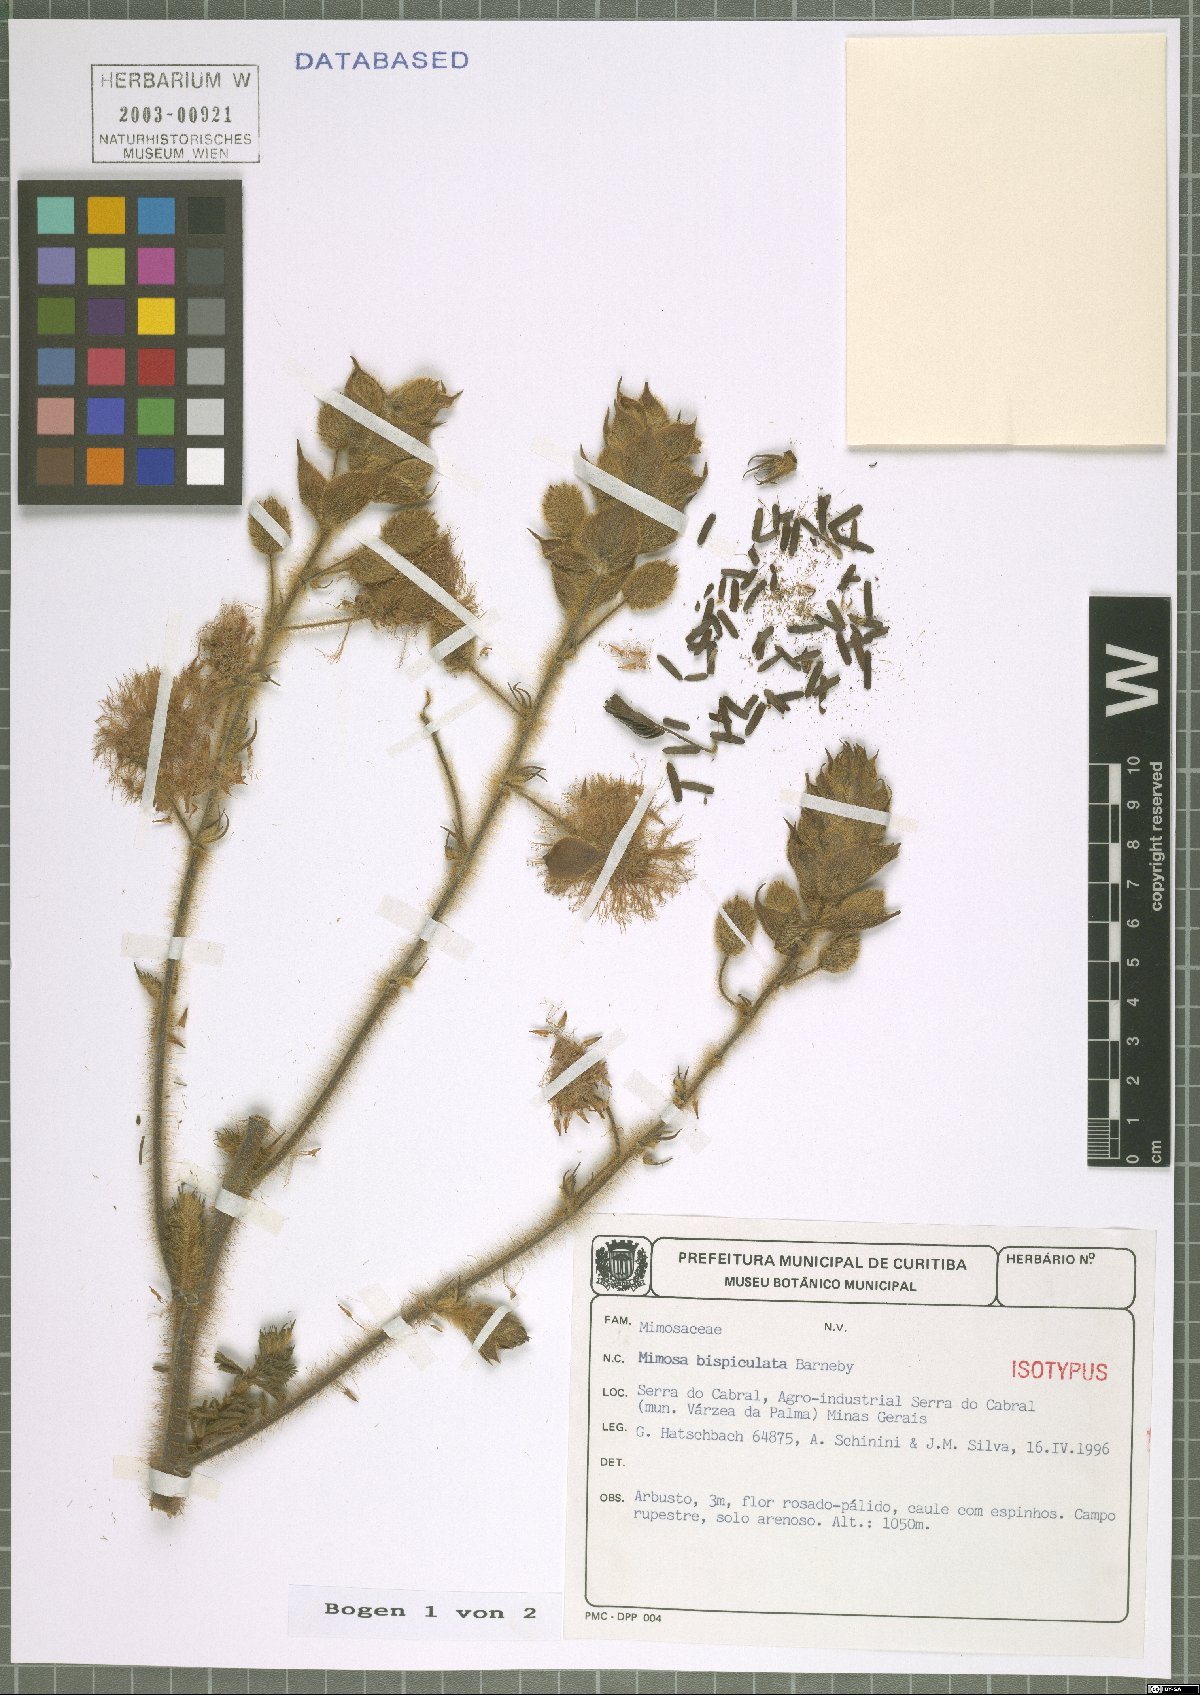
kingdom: Plantae
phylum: Tracheophyta
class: Magnoliopsida
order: Fabales
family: Fabaceae
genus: Mimosa
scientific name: Mimosa bispiculata
